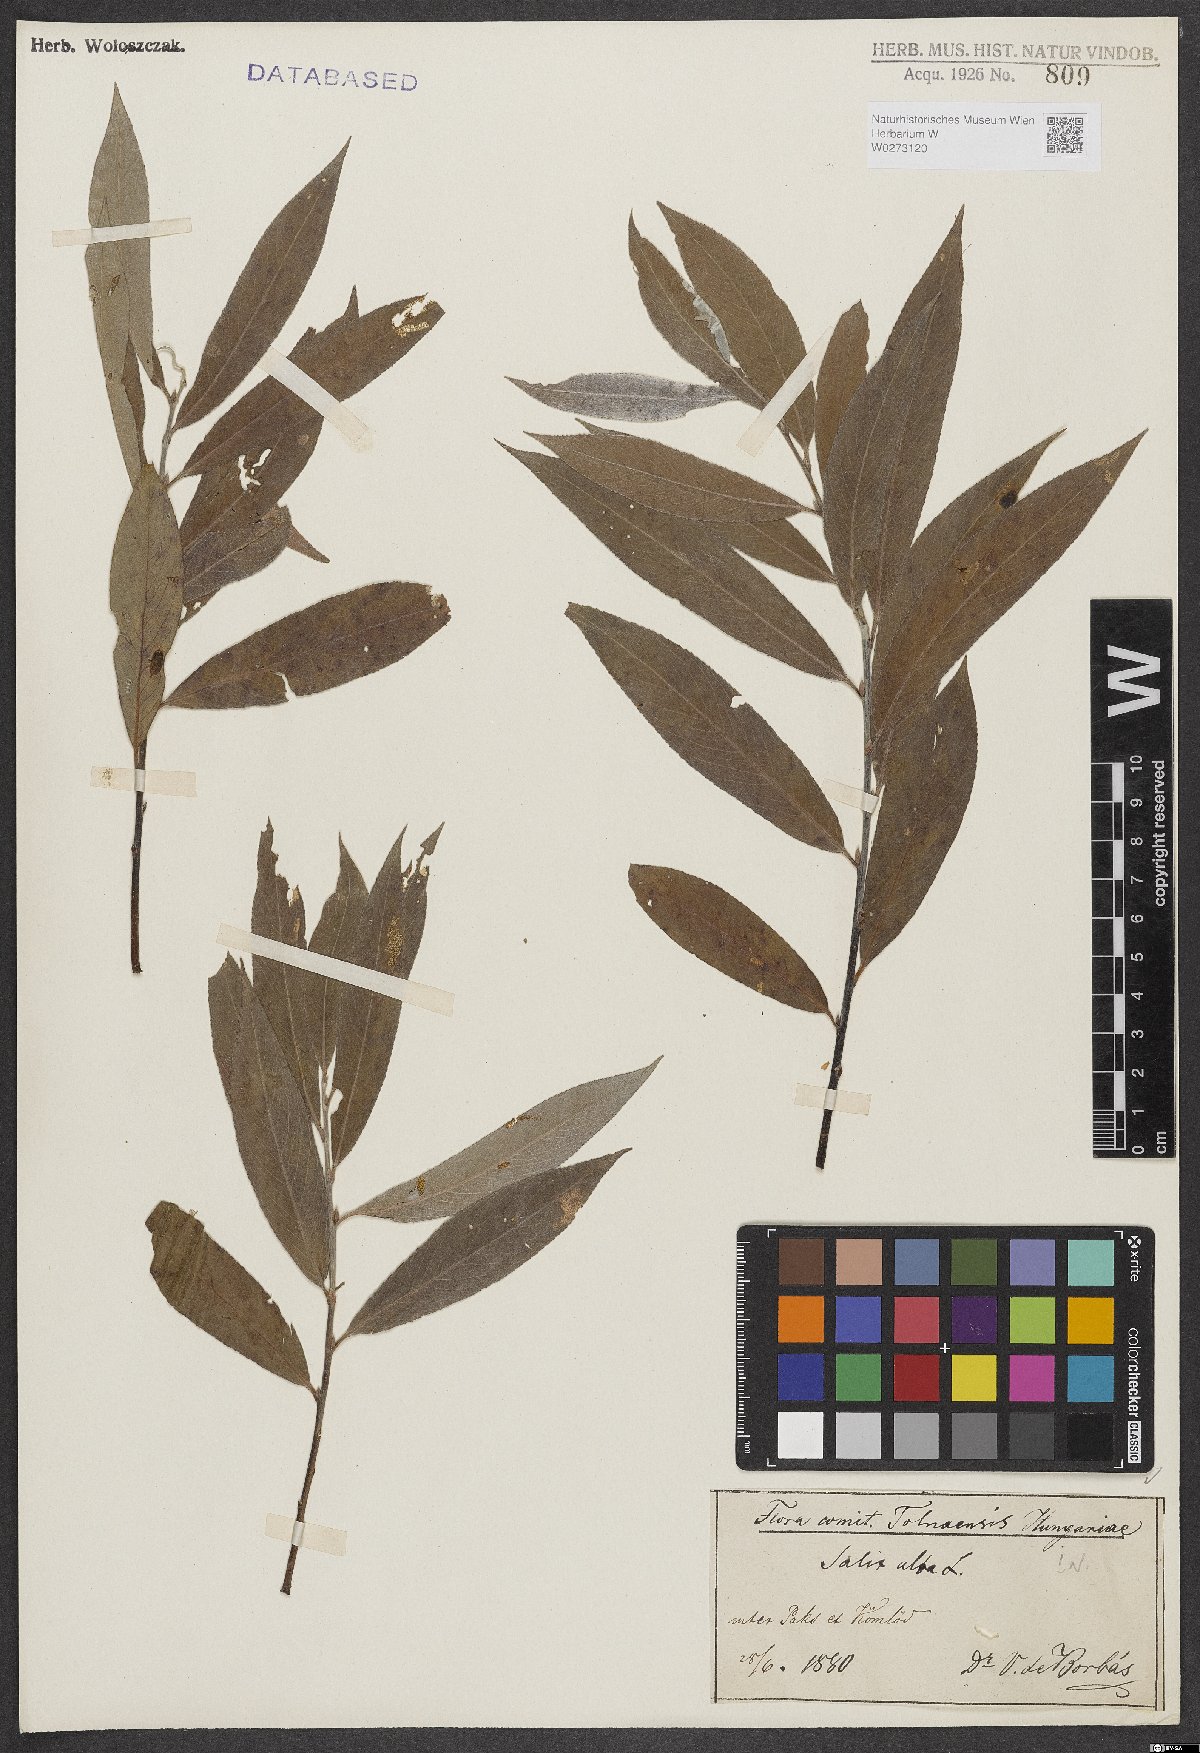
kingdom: Plantae
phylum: Tracheophyta
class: Magnoliopsida
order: Malpighiales
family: Salicaceae
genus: Salix
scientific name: Salix alba
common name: White willow
